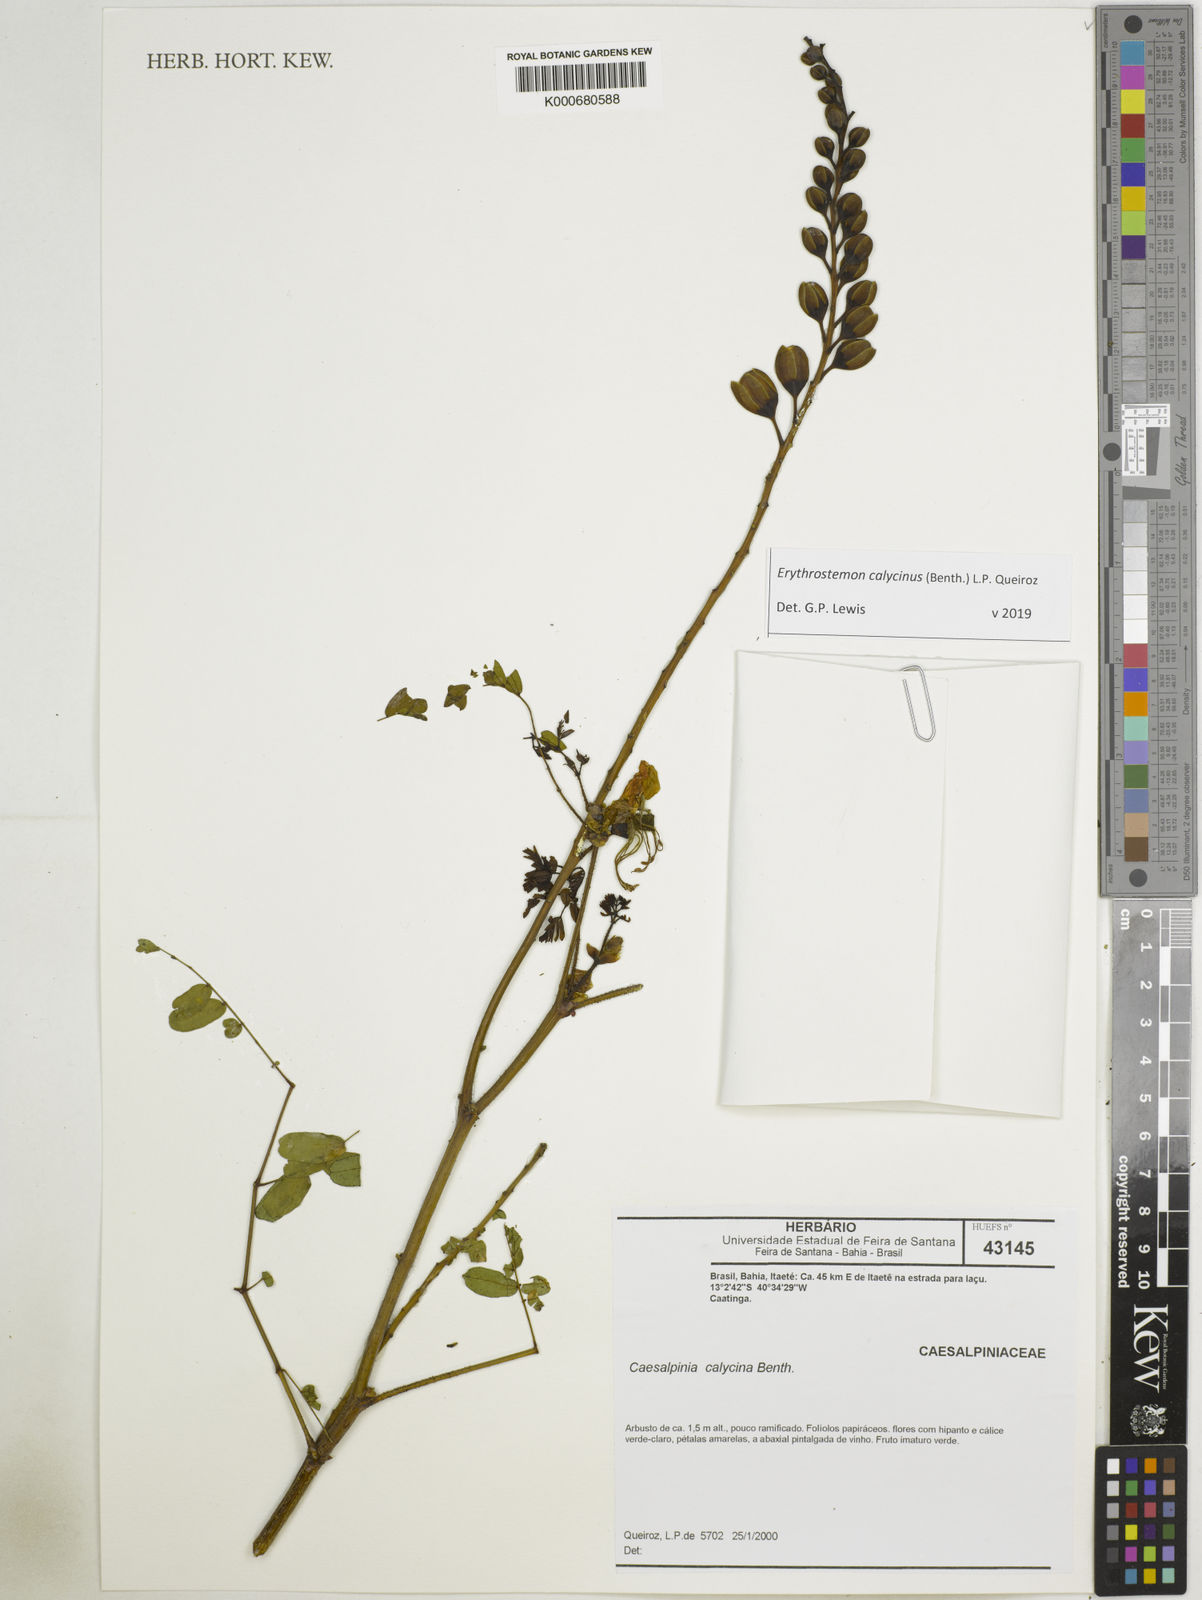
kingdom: Plantae
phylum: Tracheophyta
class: Magnoliopsida
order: Fabales
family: Fabaceae
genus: Erythrostemon
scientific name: Erythrostemon calycinus
